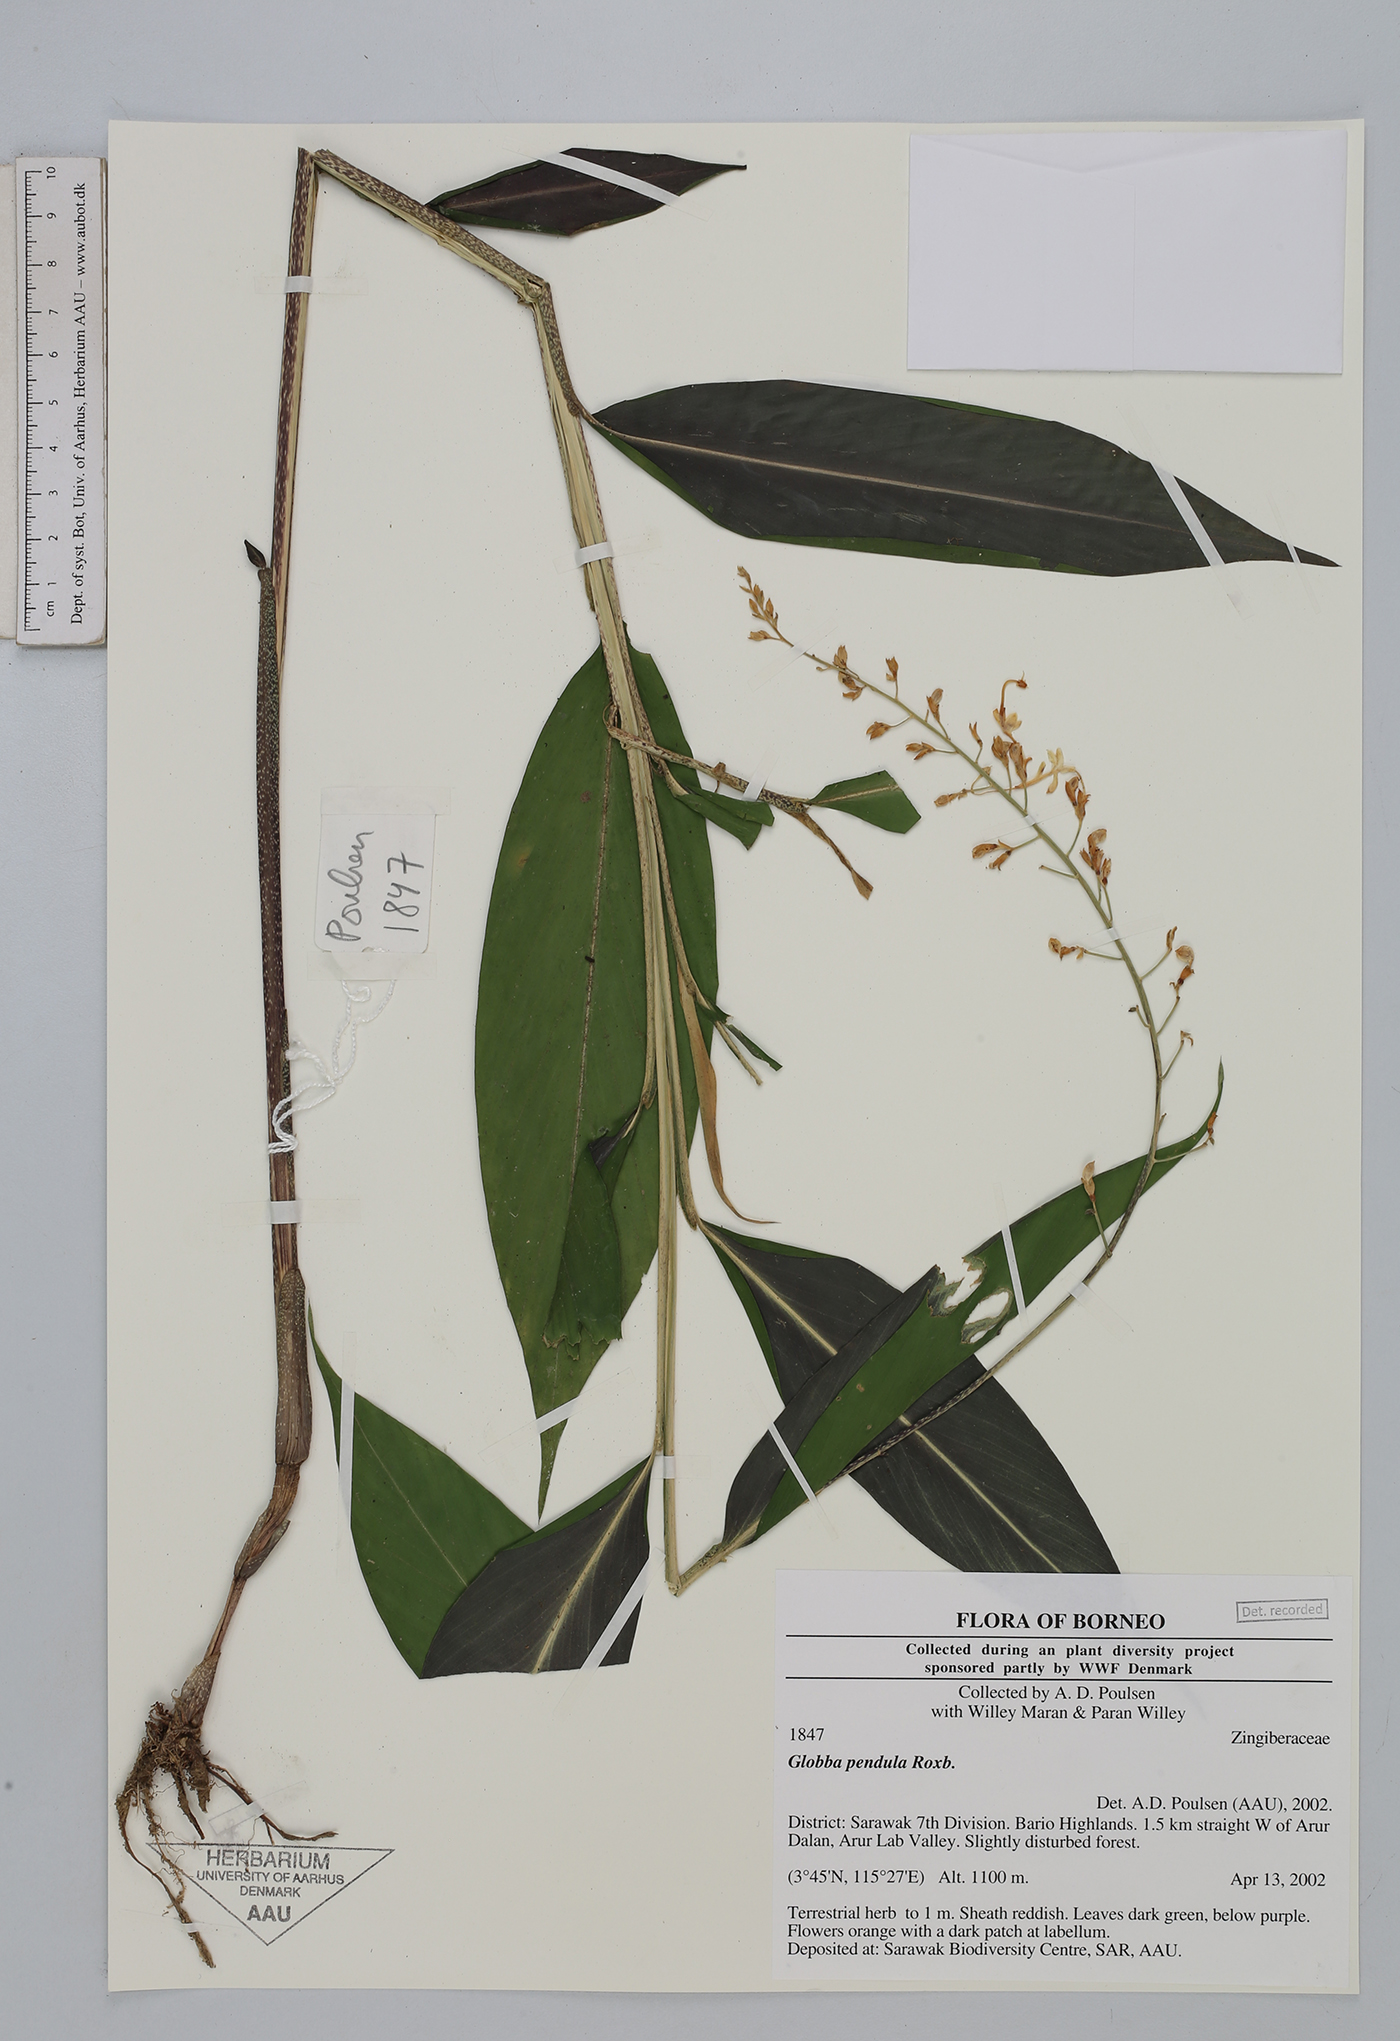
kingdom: Plantae
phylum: Tracheophyta
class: Liliopsida
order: Zingiberales
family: Zingiberaceae
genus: Globba
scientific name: Globba pendula
